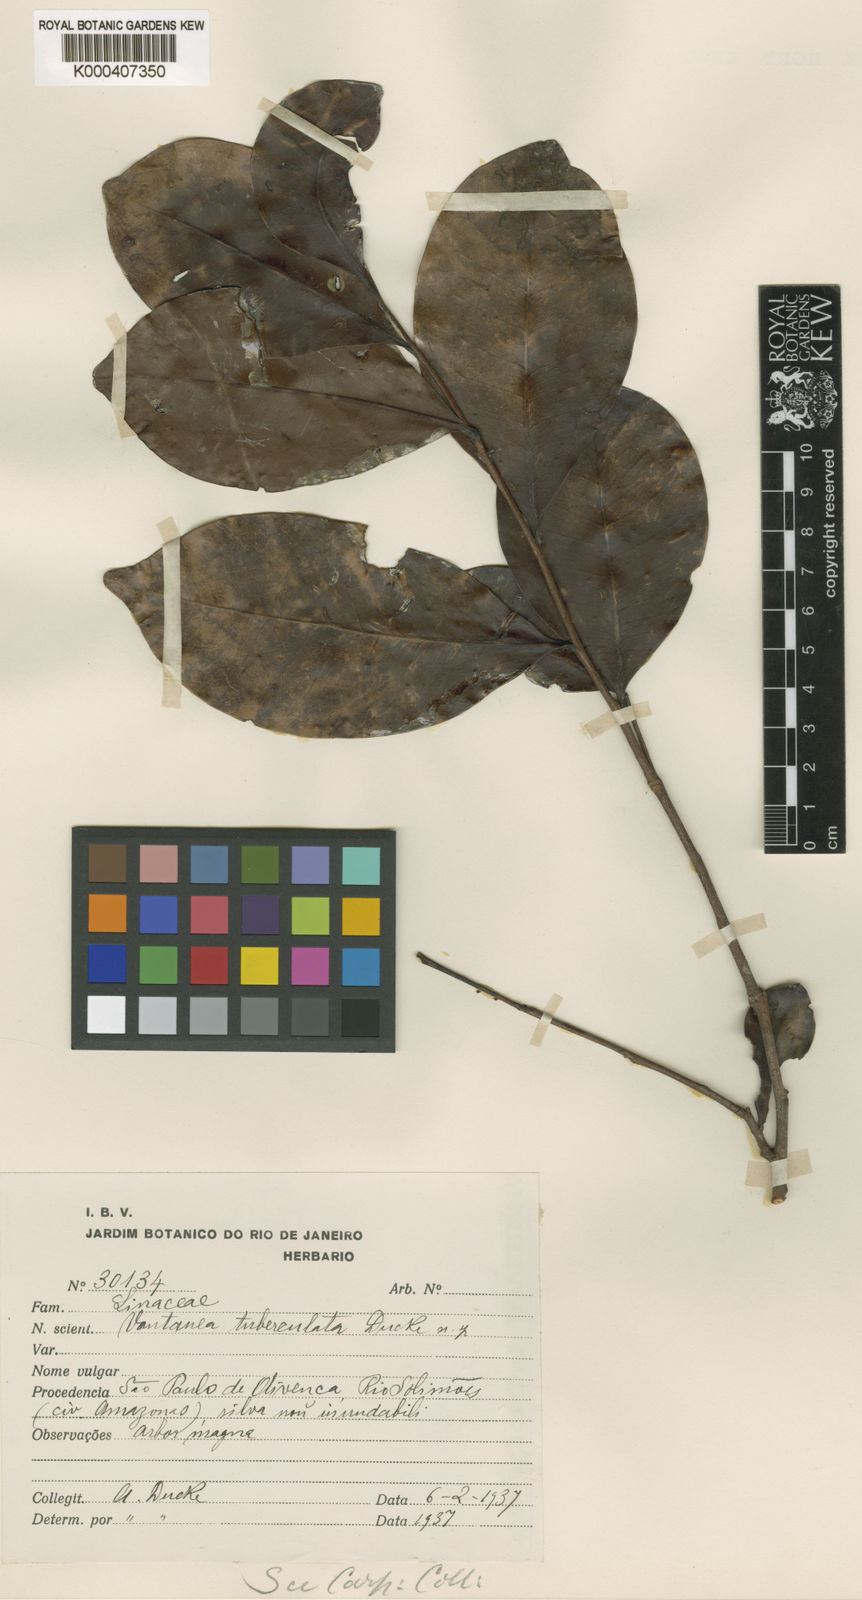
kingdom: Plantae
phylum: Tracheophyta
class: Magnoliopsida
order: Malpighiales
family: Humiriaceae
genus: Vantanea
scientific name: Vantanea tuberculata
